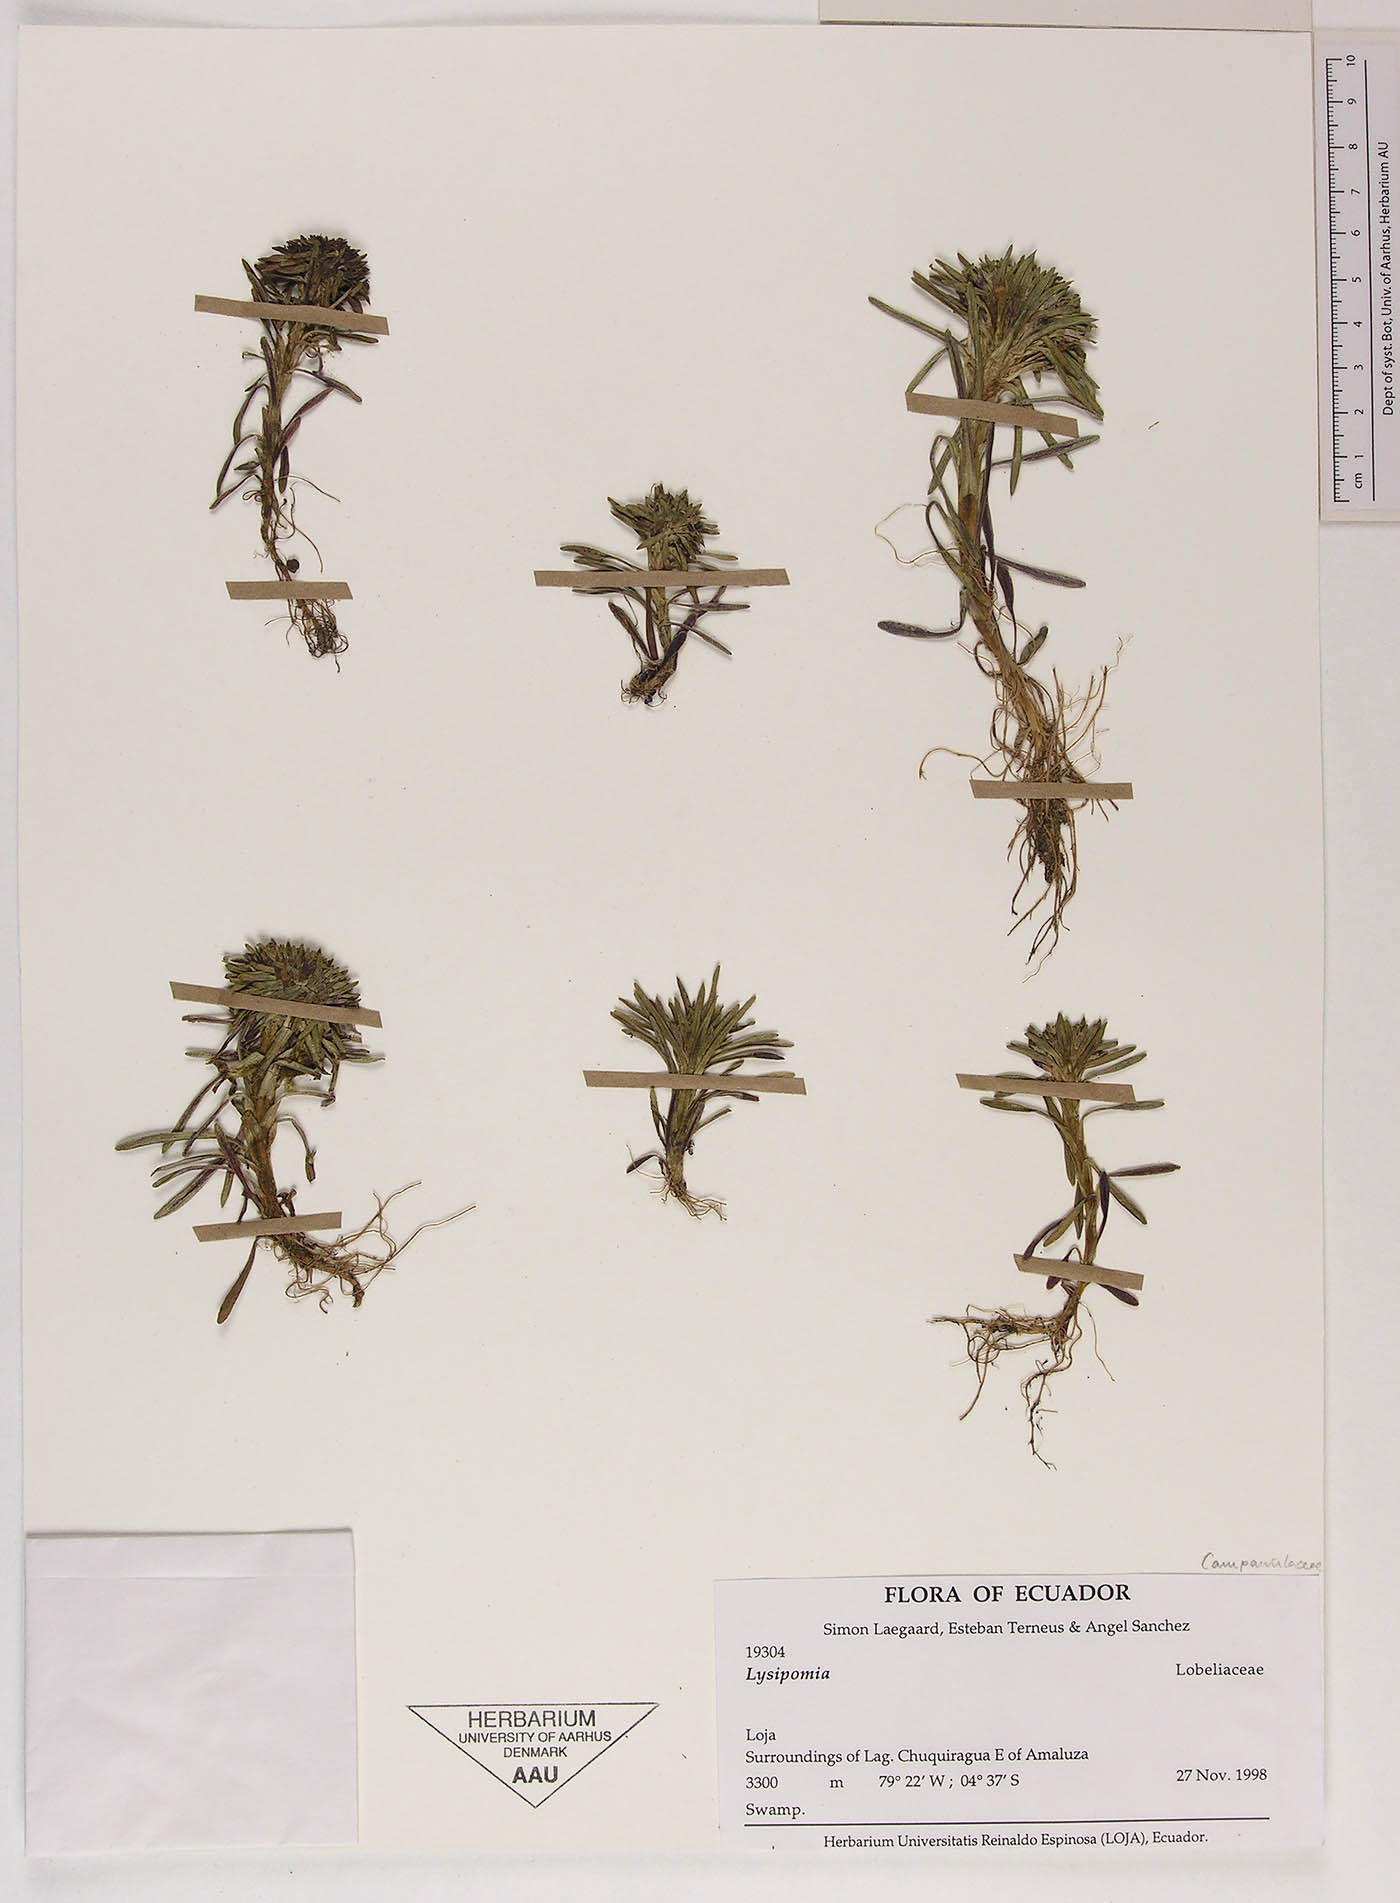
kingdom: Plantae
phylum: Tracheophyta
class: Magnoliopsida
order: Asterales
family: Campanulaceae
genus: Lysipomia
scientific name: Lysipomia
